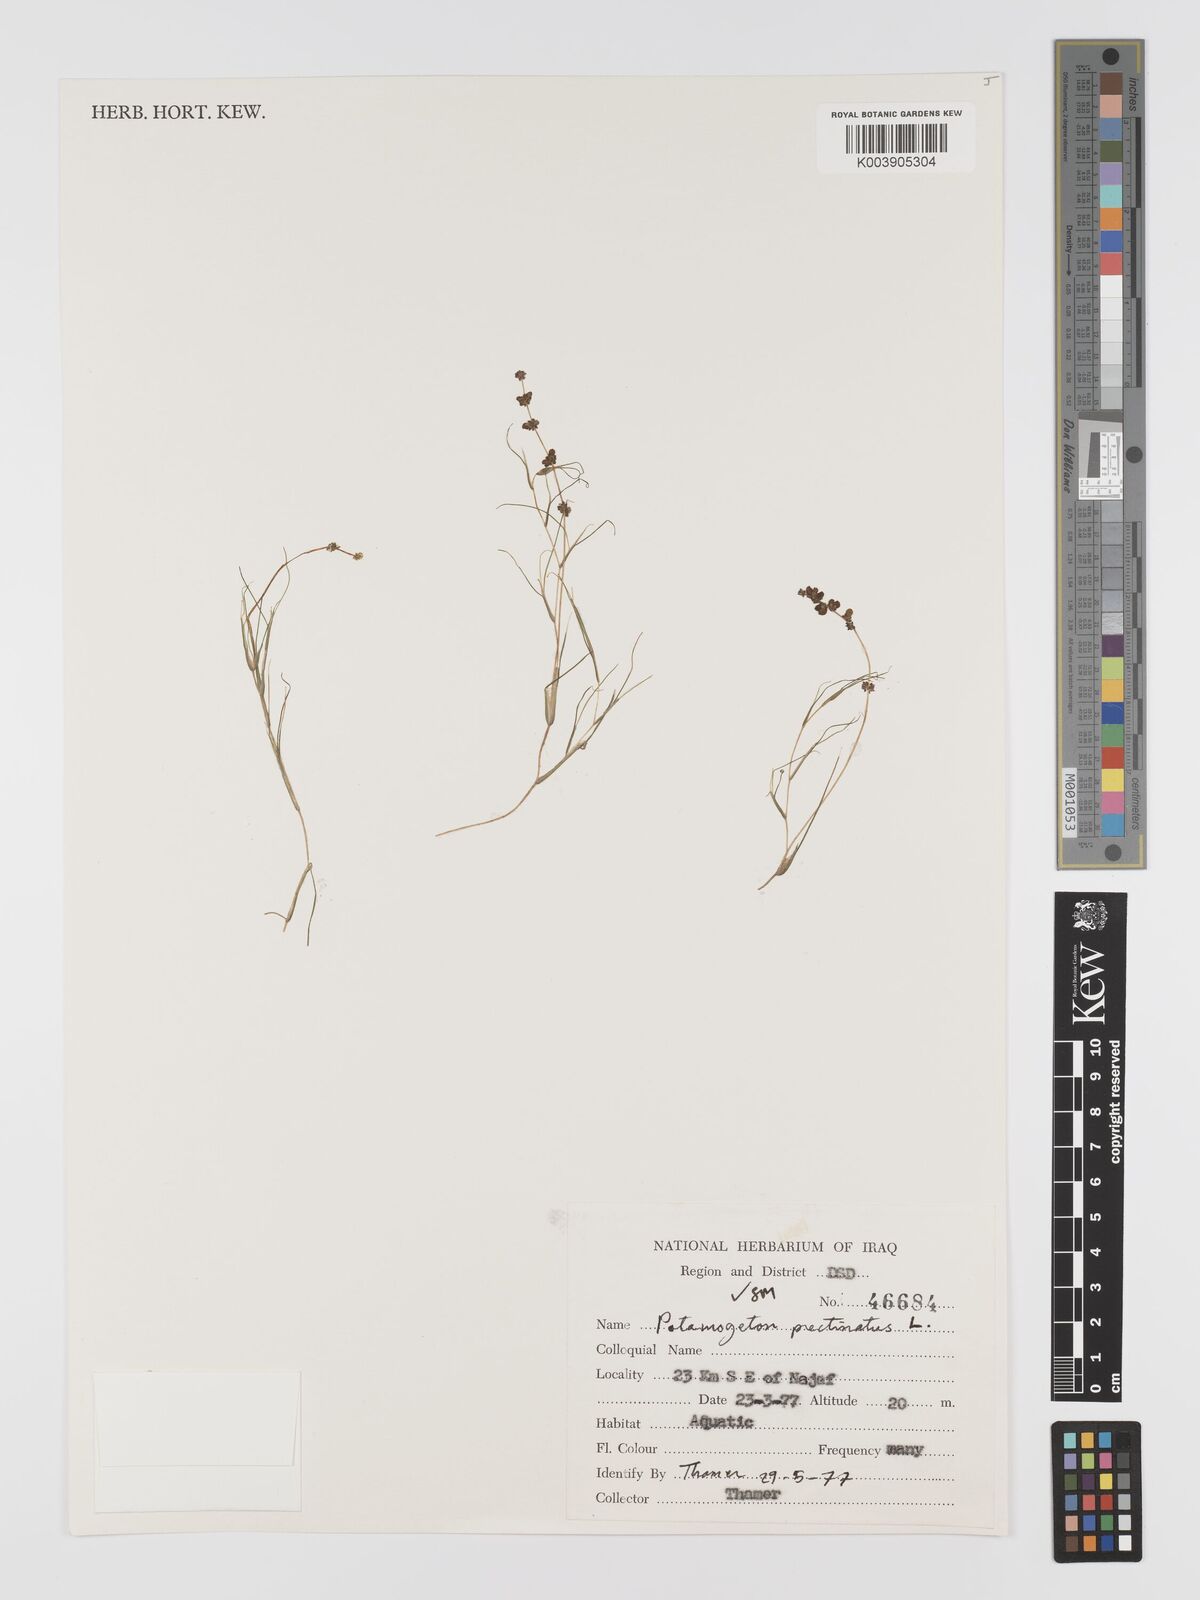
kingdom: Plantae
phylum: Tracheophyta
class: Liliopsida
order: Alismatales
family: Potamogetonaceae
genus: Stuckenia
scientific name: Stuckenia pectinata
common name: Sago pondweed
